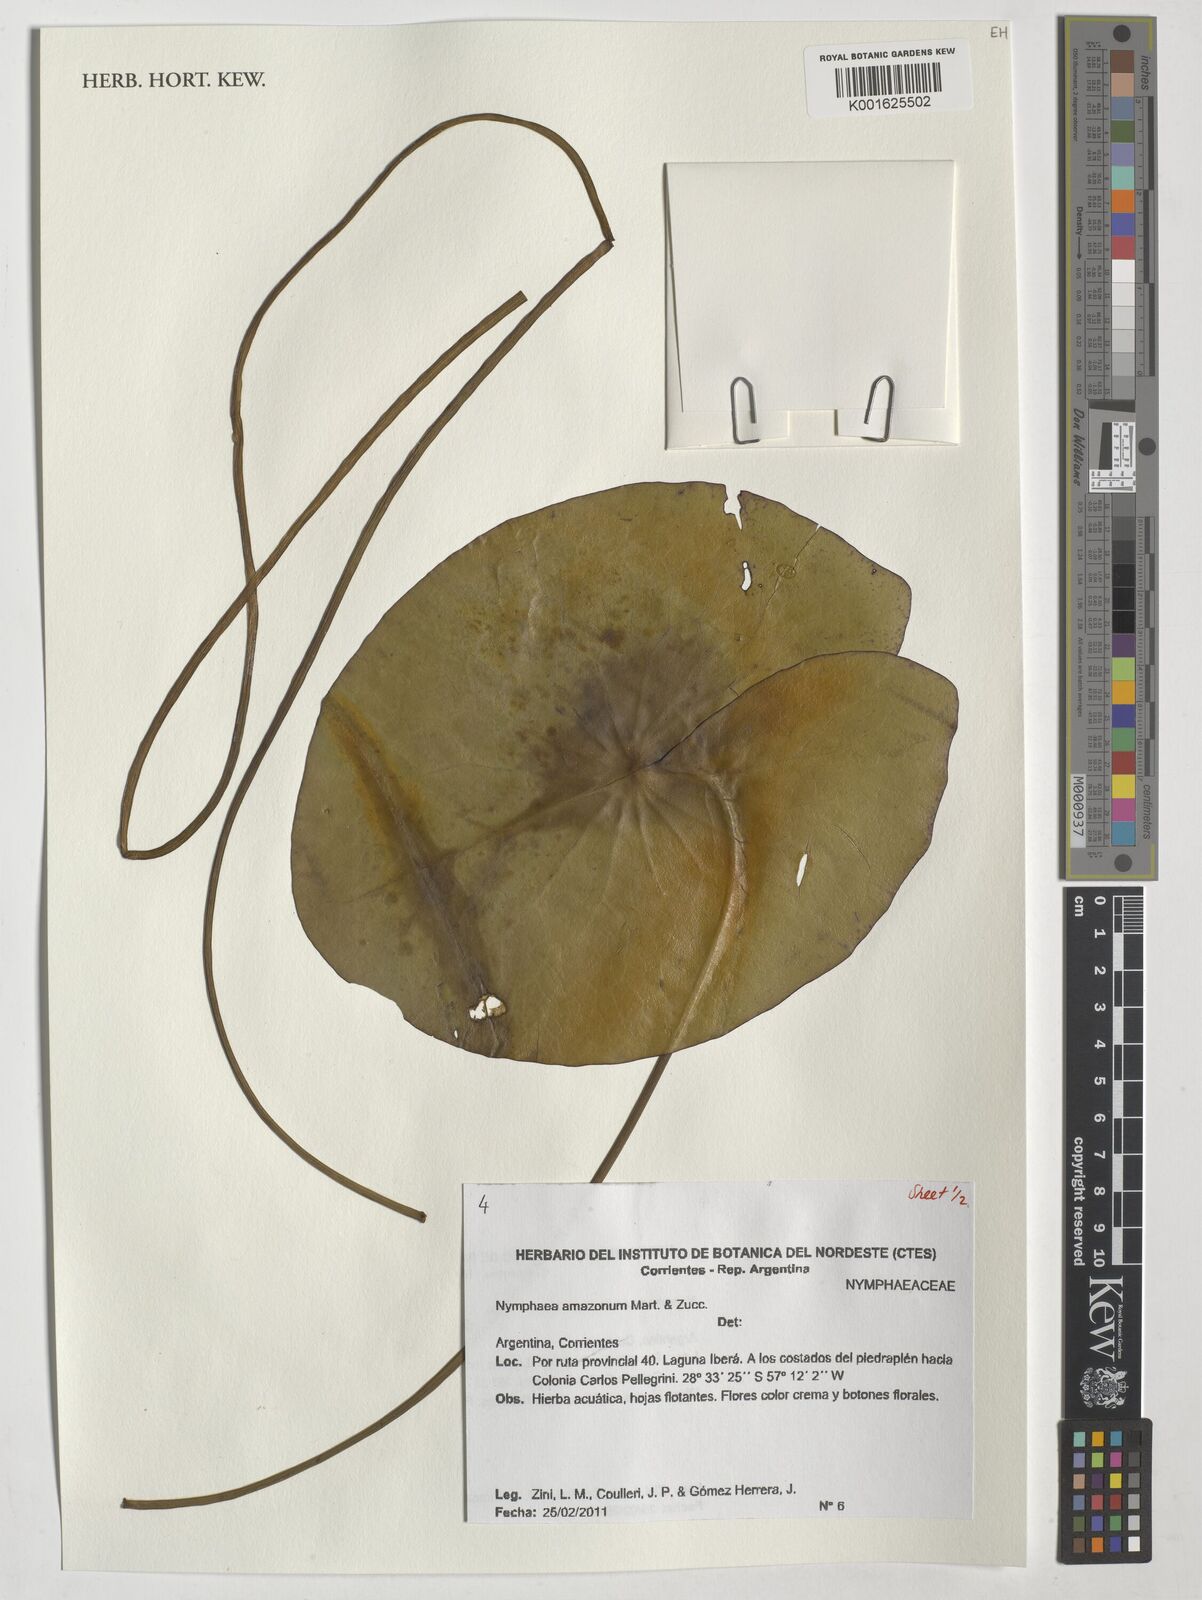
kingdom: Plantae
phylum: Tracheophyta
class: Magnoliopsida
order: Nymphaeales
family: Nymphaeaceae
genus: Nymphaea
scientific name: Nymphaea amazonum
